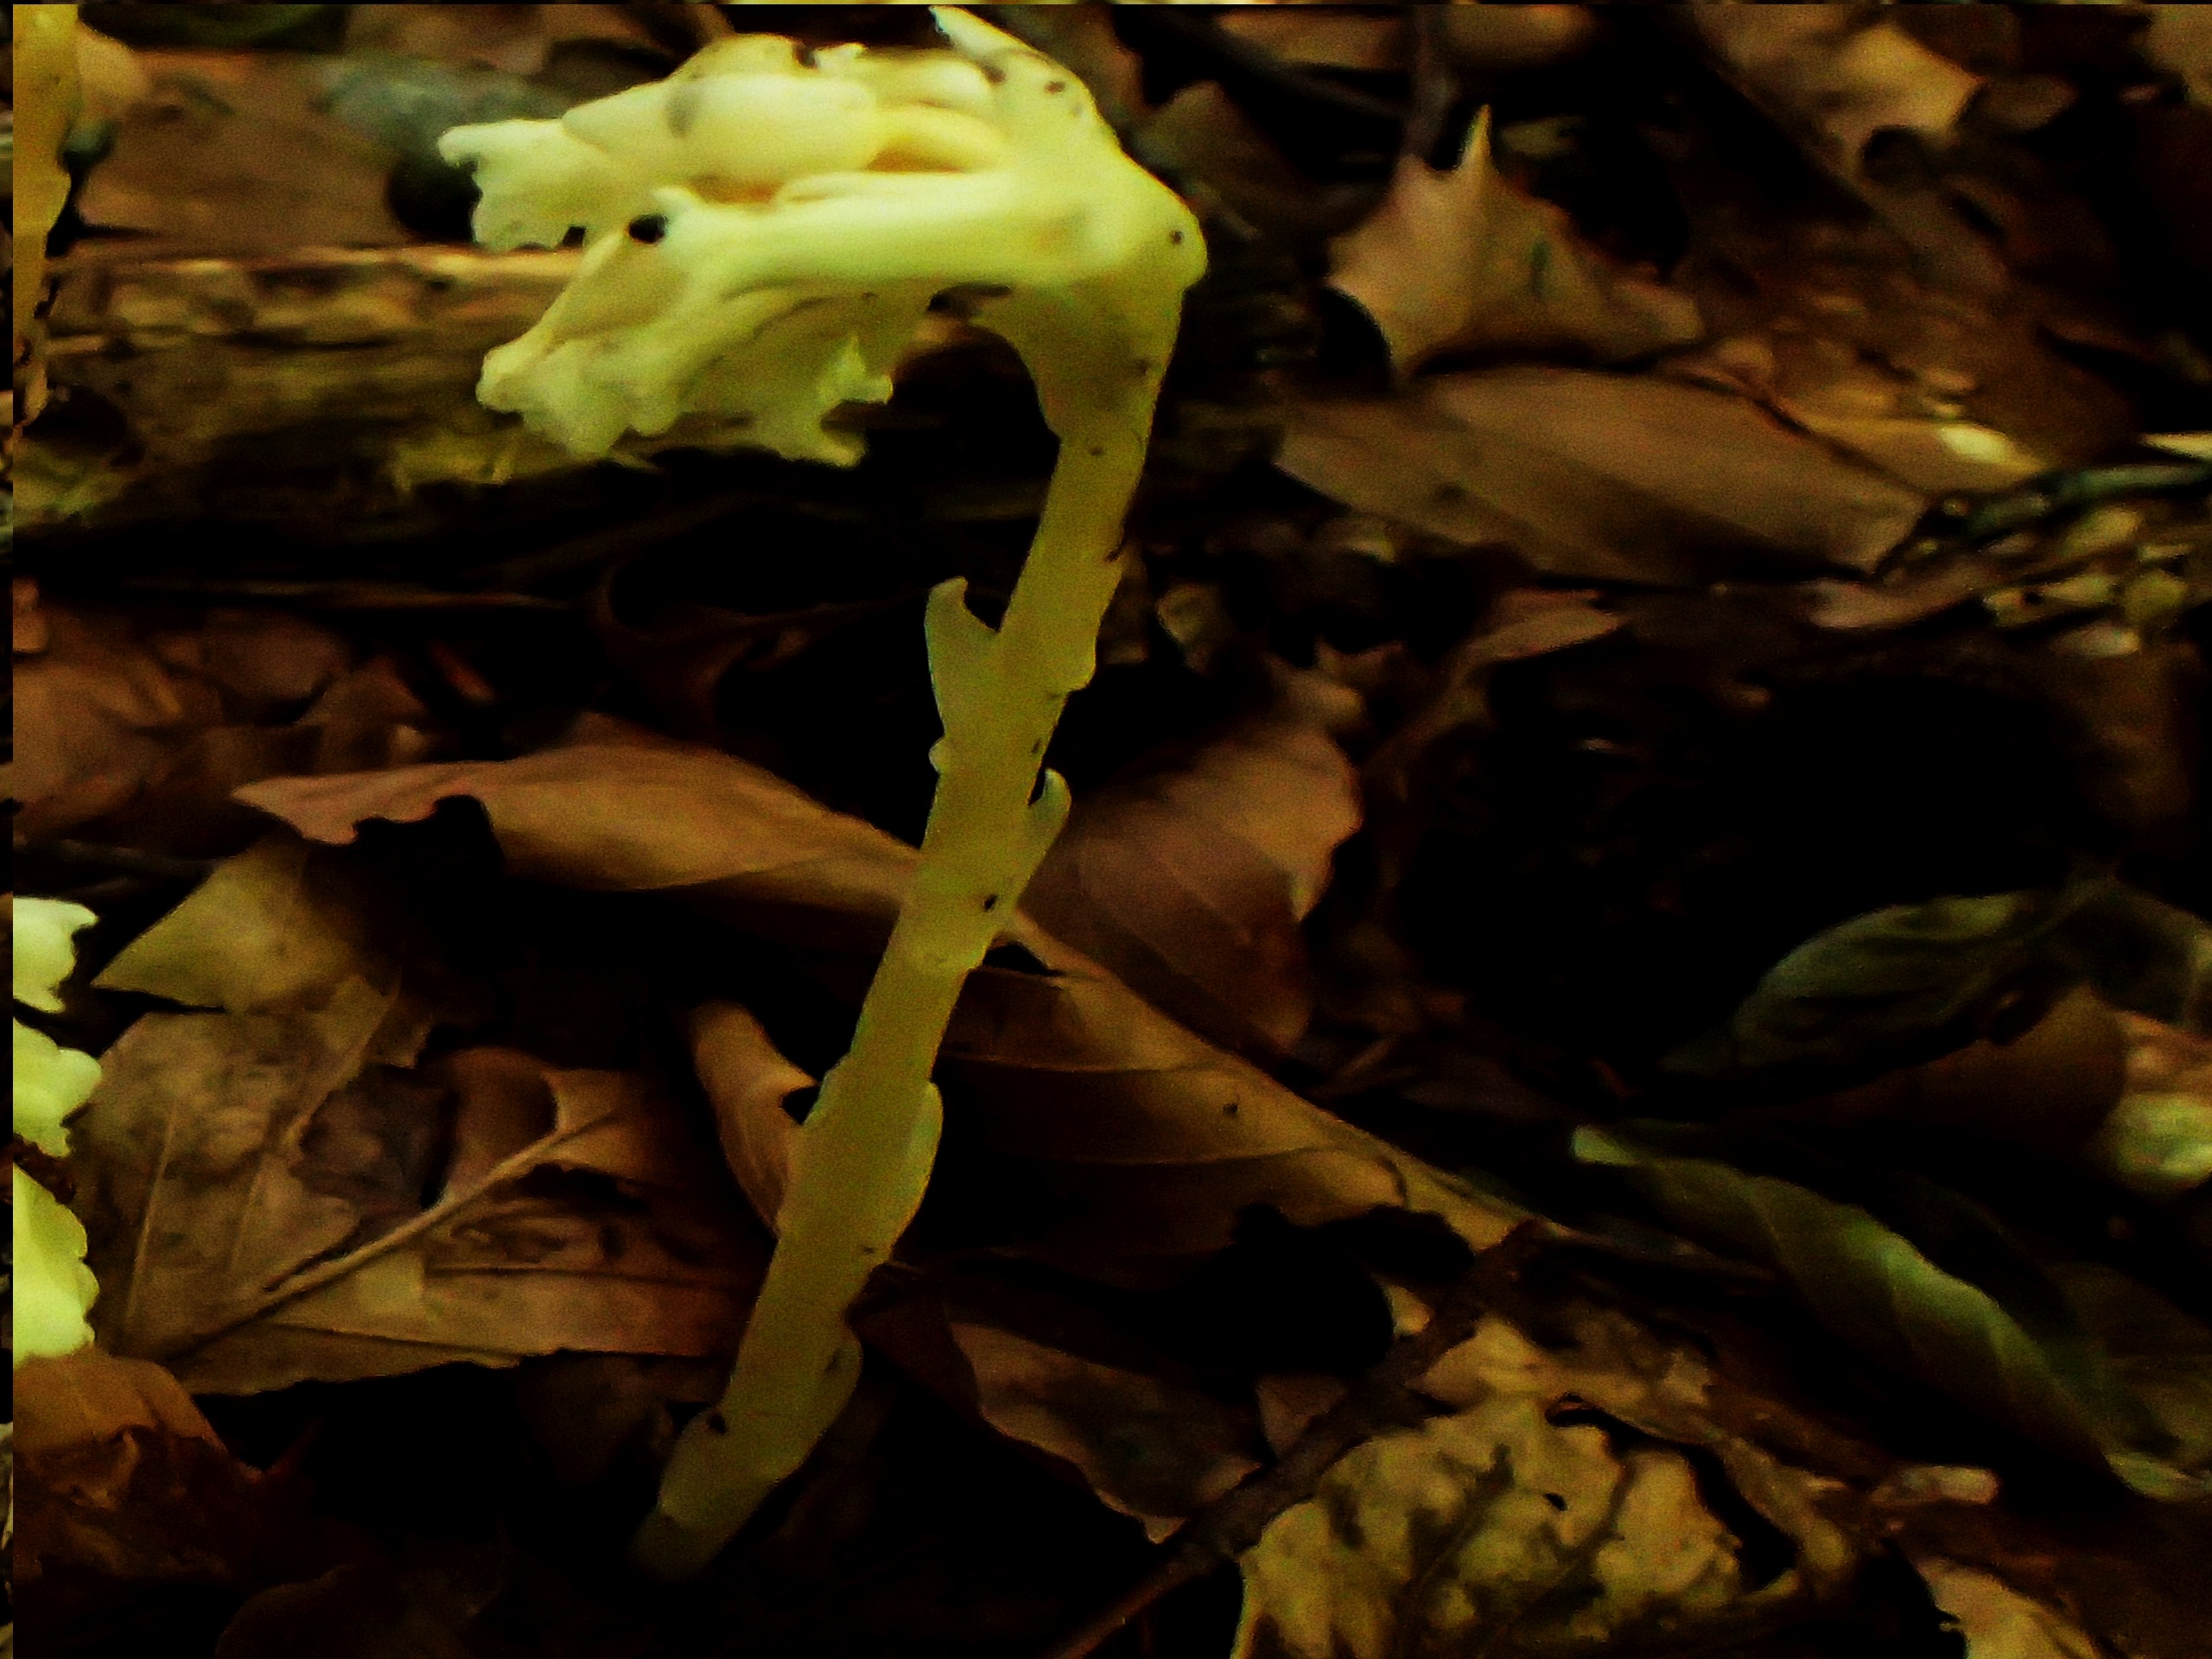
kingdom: Plantae
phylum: Tracheophyta
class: Magnoliopsida
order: Ericales
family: Ericaceae
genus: Hypopitys
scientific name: Hypopitys monotropa
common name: Håret snylterod
